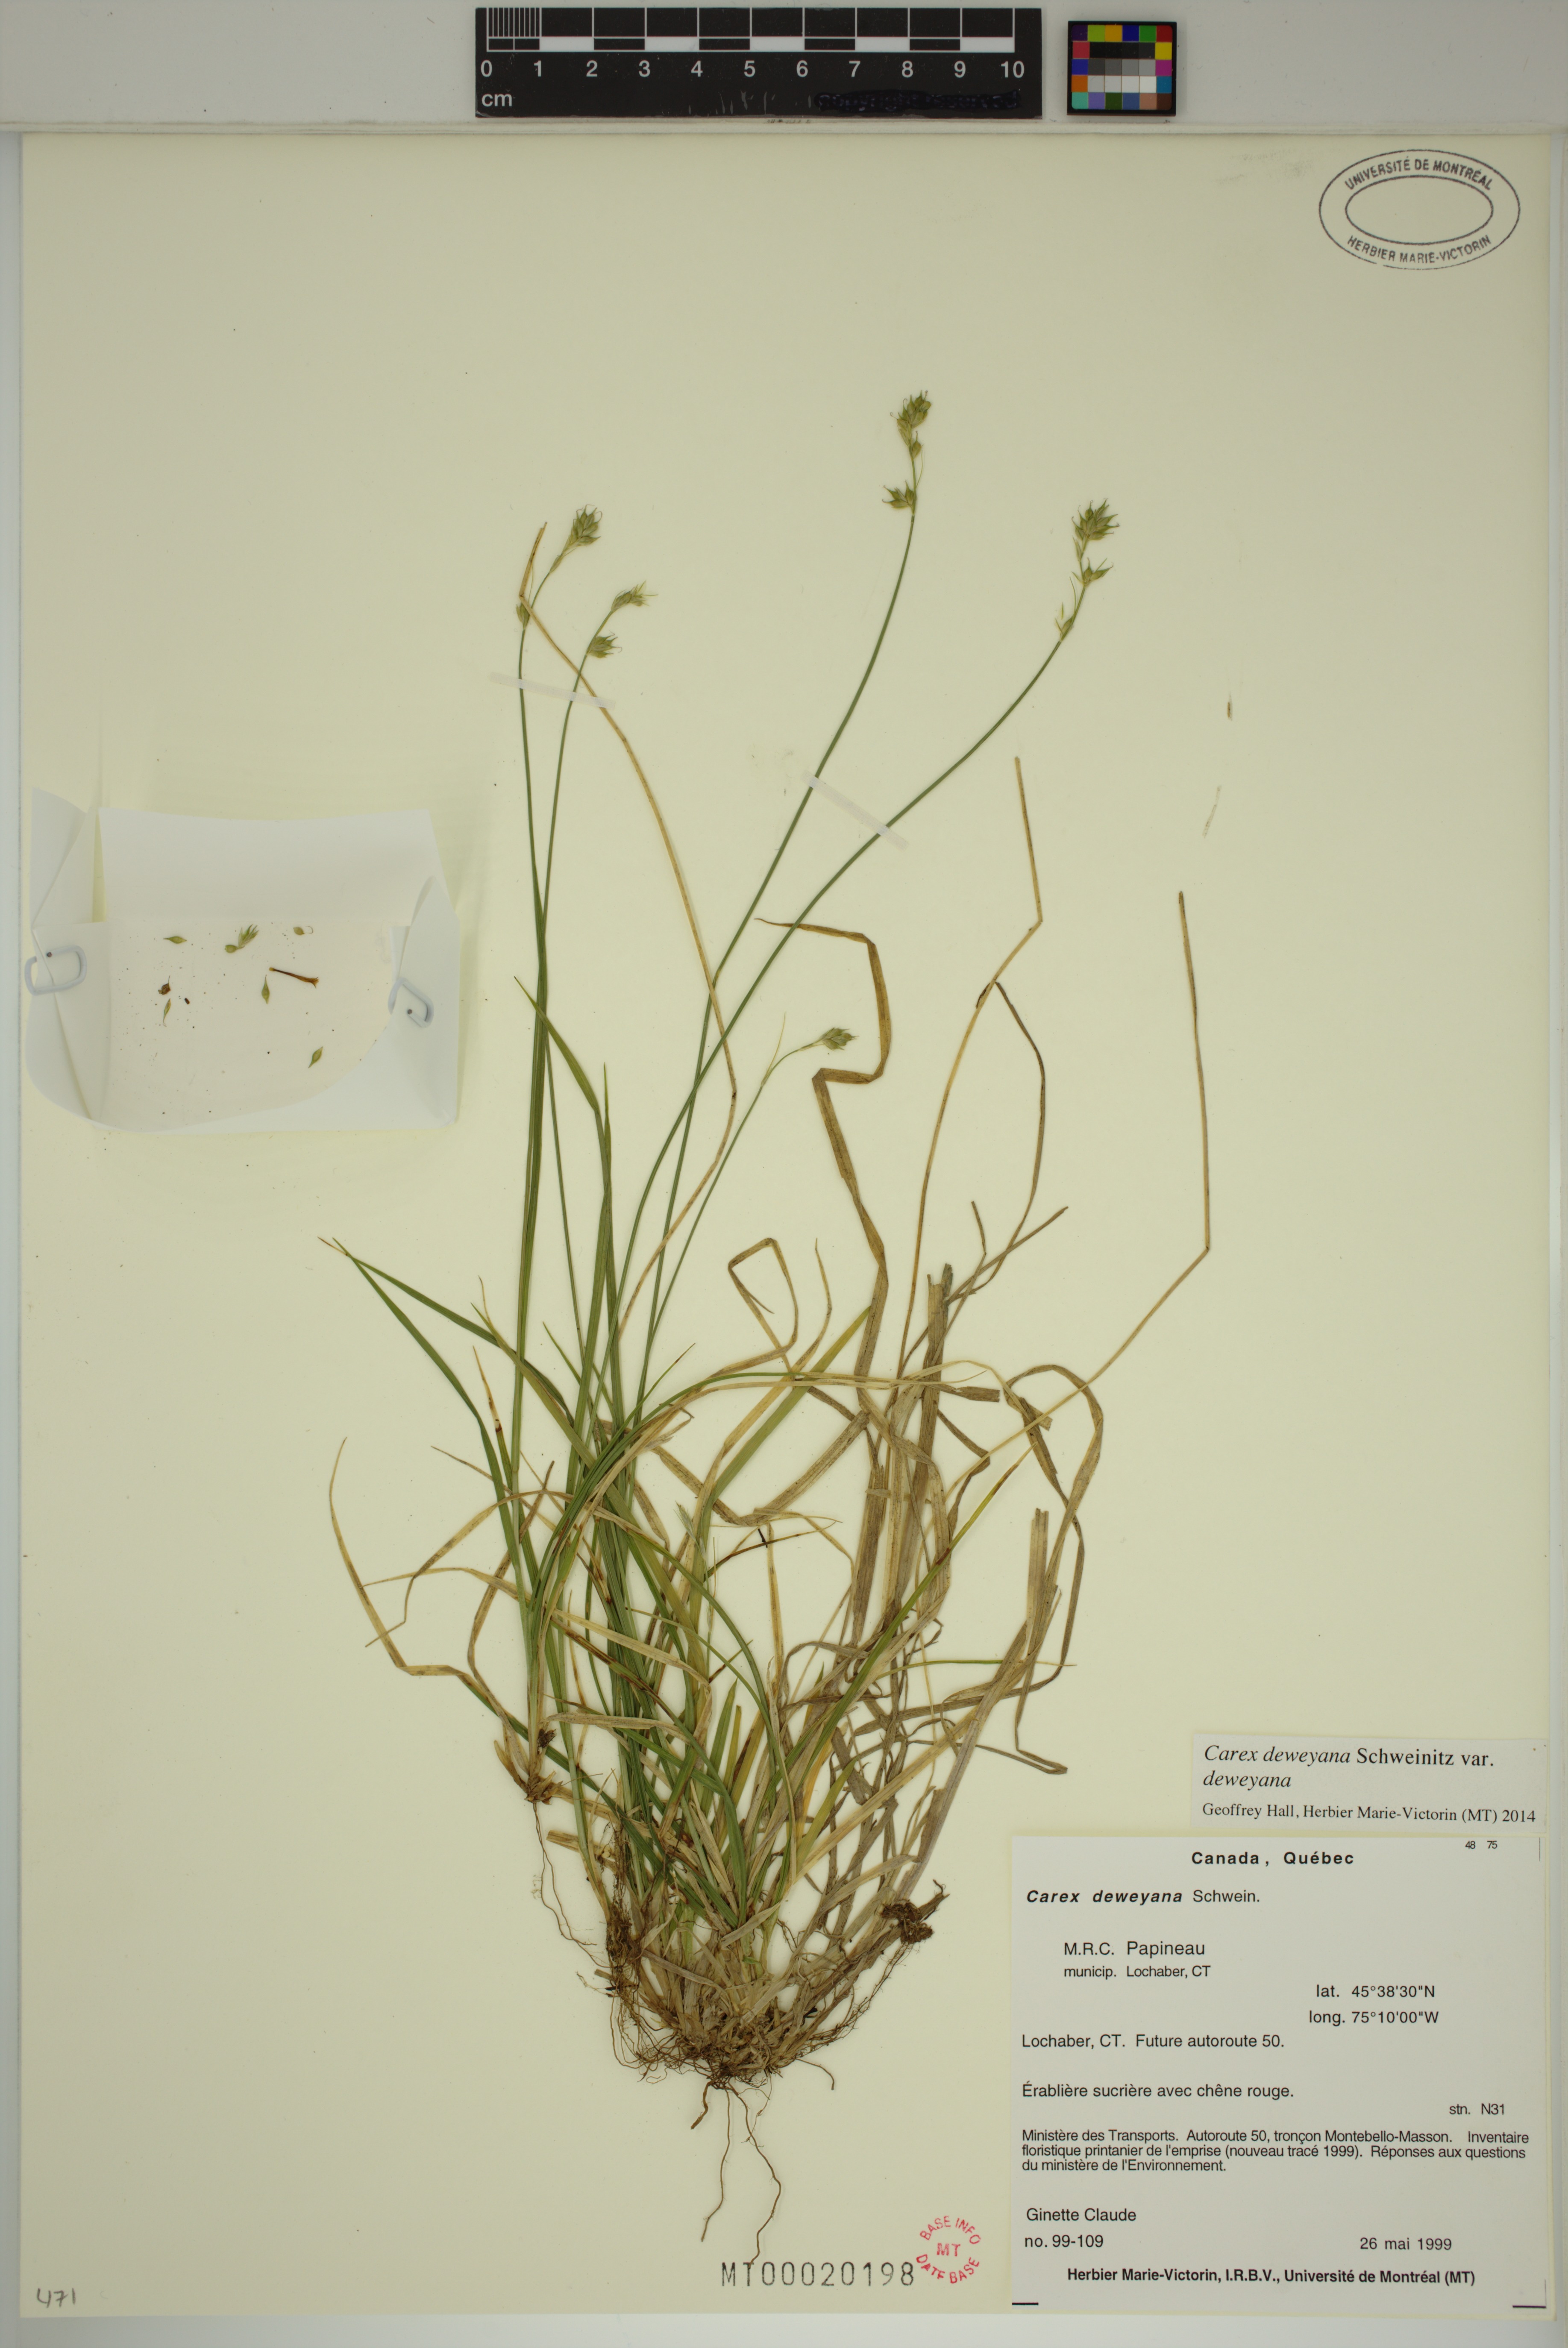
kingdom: Plantae
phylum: Tracheophyta
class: Liliopsida
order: Poales
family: Cyperaceae
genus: Carex
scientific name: Carex deweyana
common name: Dewey's sedge
